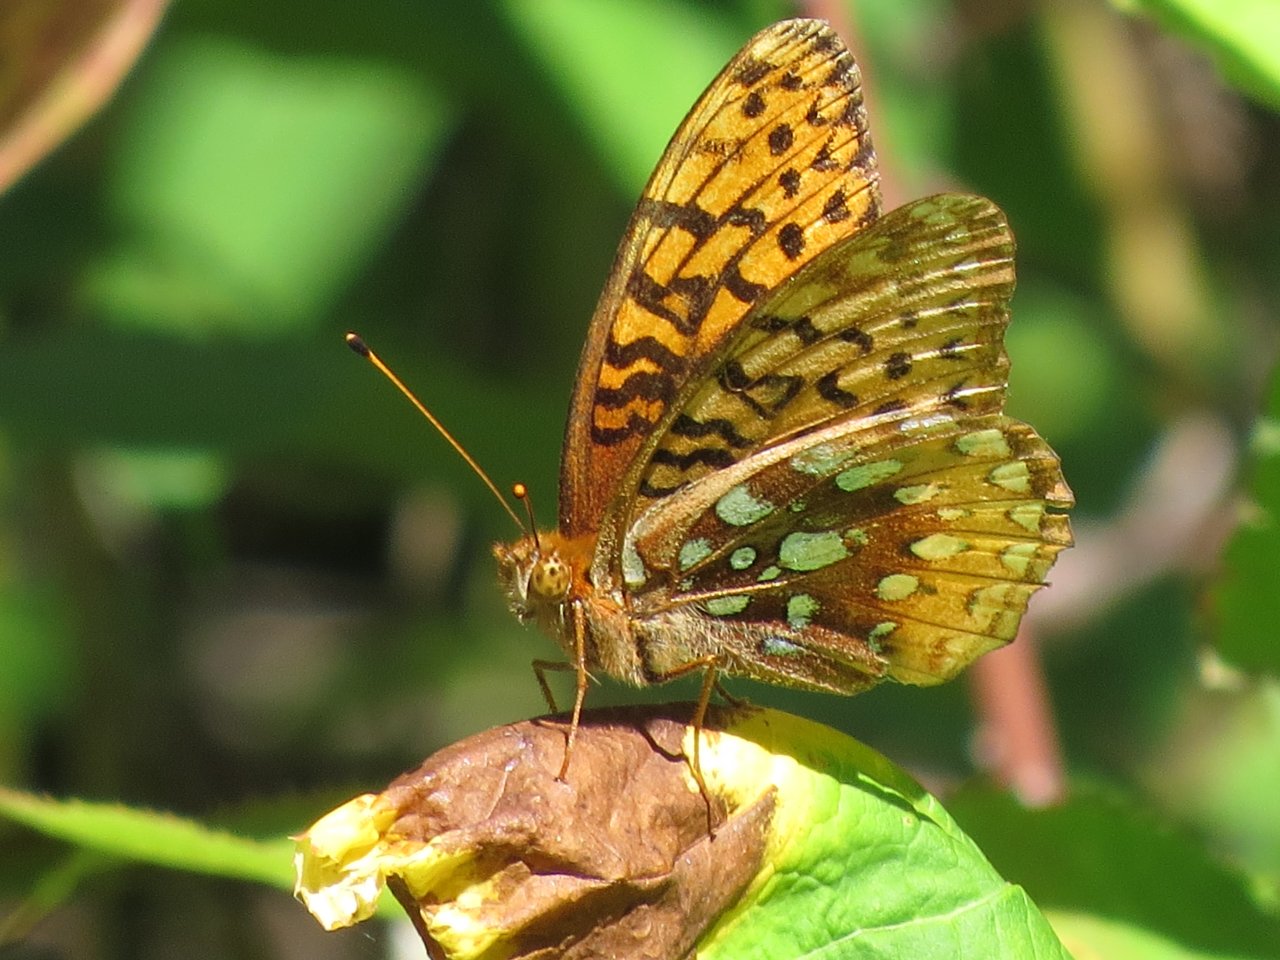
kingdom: Animalia
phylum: Arthropoda
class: Insecta
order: Lepidoptera
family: Nymphalidae
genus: Speyeria
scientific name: Speyeria cybele
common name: Great Spangled Fritillary
